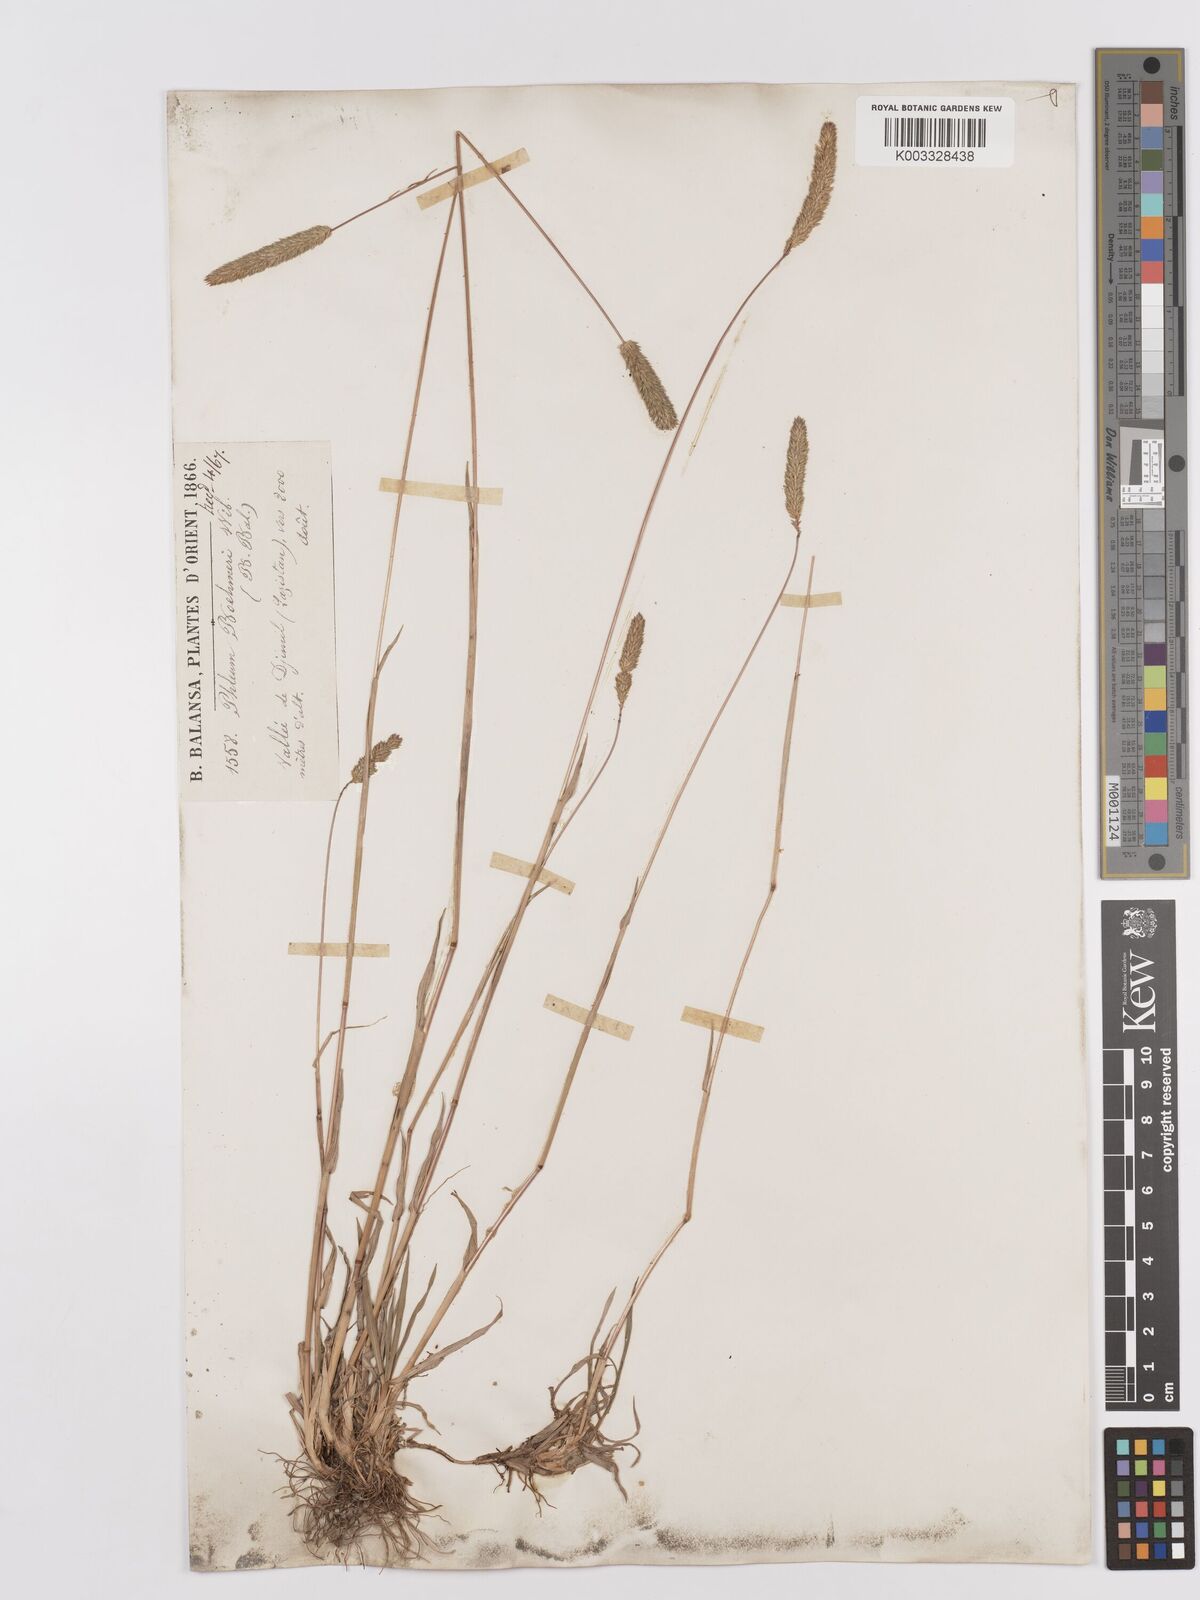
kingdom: Plantae
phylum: Tracheophyta
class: Liliopsida
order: Poales
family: Poaceae
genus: Phleum
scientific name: Phleum phleoides
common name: Purple-stem cat's-tail
